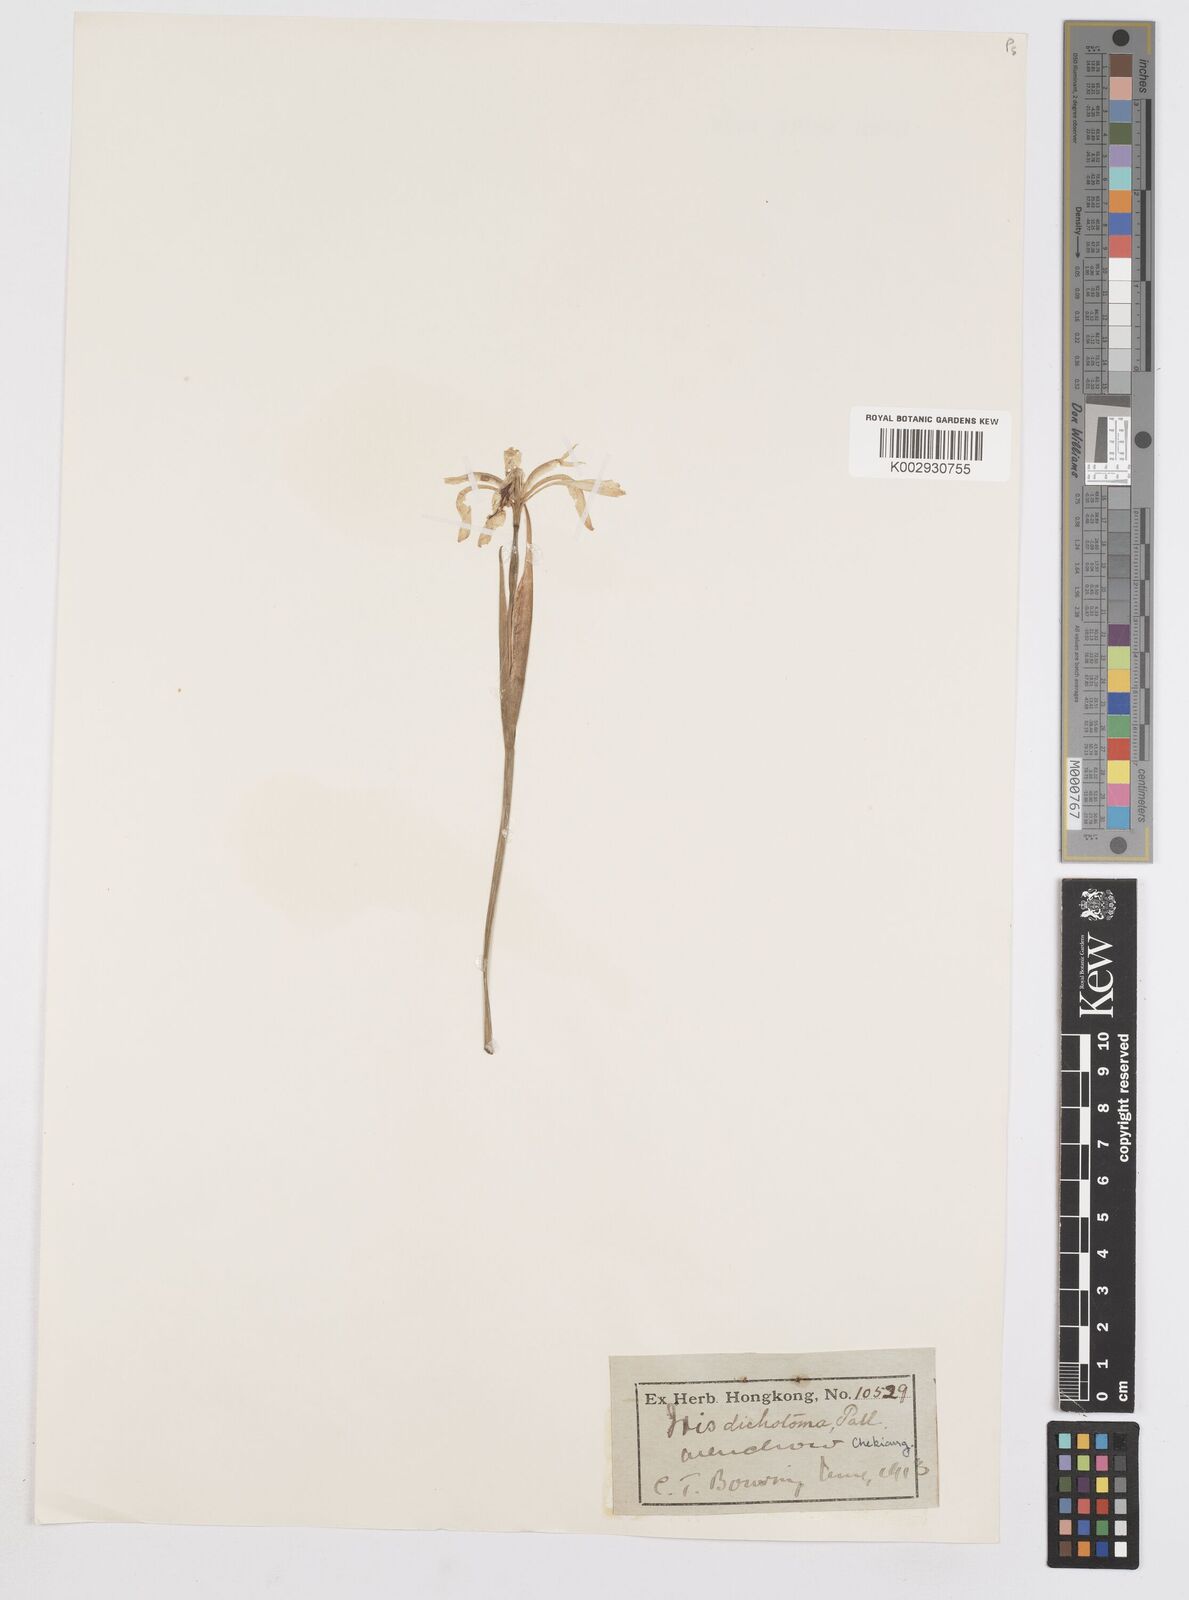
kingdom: Plantae
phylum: Tracheophyta
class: Liliopsida
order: Asparagales
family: Iridaceae
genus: Iris
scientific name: Iris dichotoma
